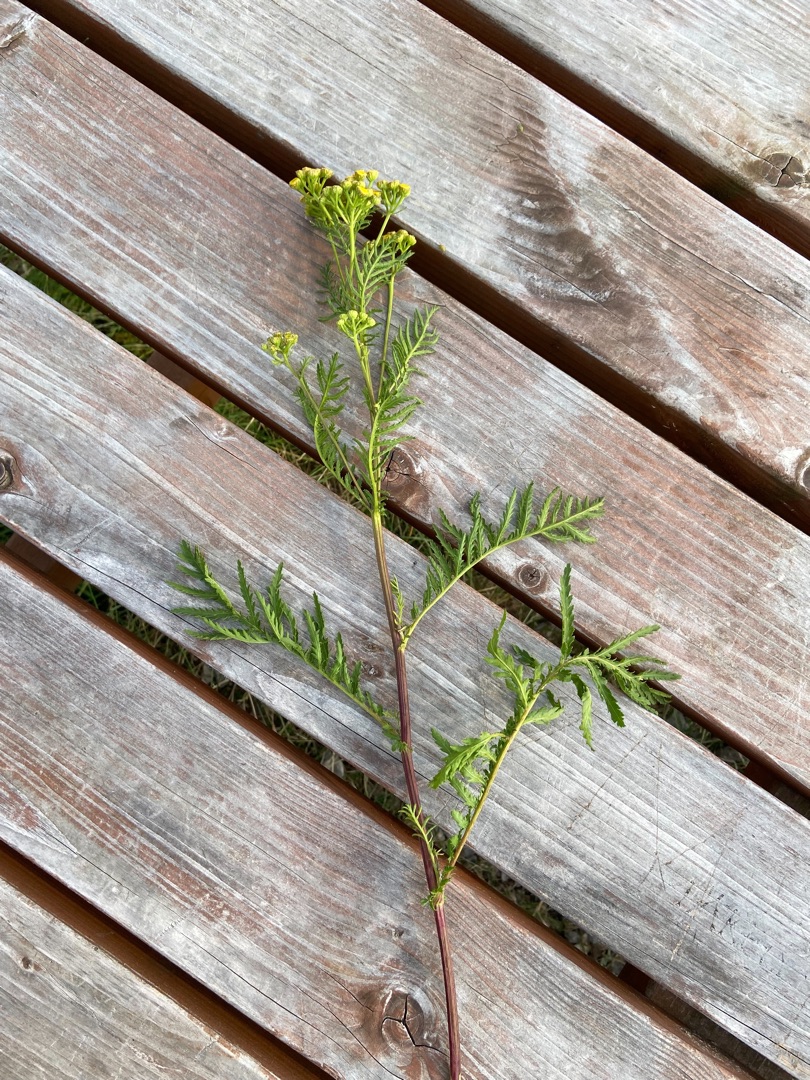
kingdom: Plantae
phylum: Tracheophyta
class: Magnoliopsida
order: Asterales
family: Asteraceae
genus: Tanacetum
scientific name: Tanacetum vulgare
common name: Rejnfan
